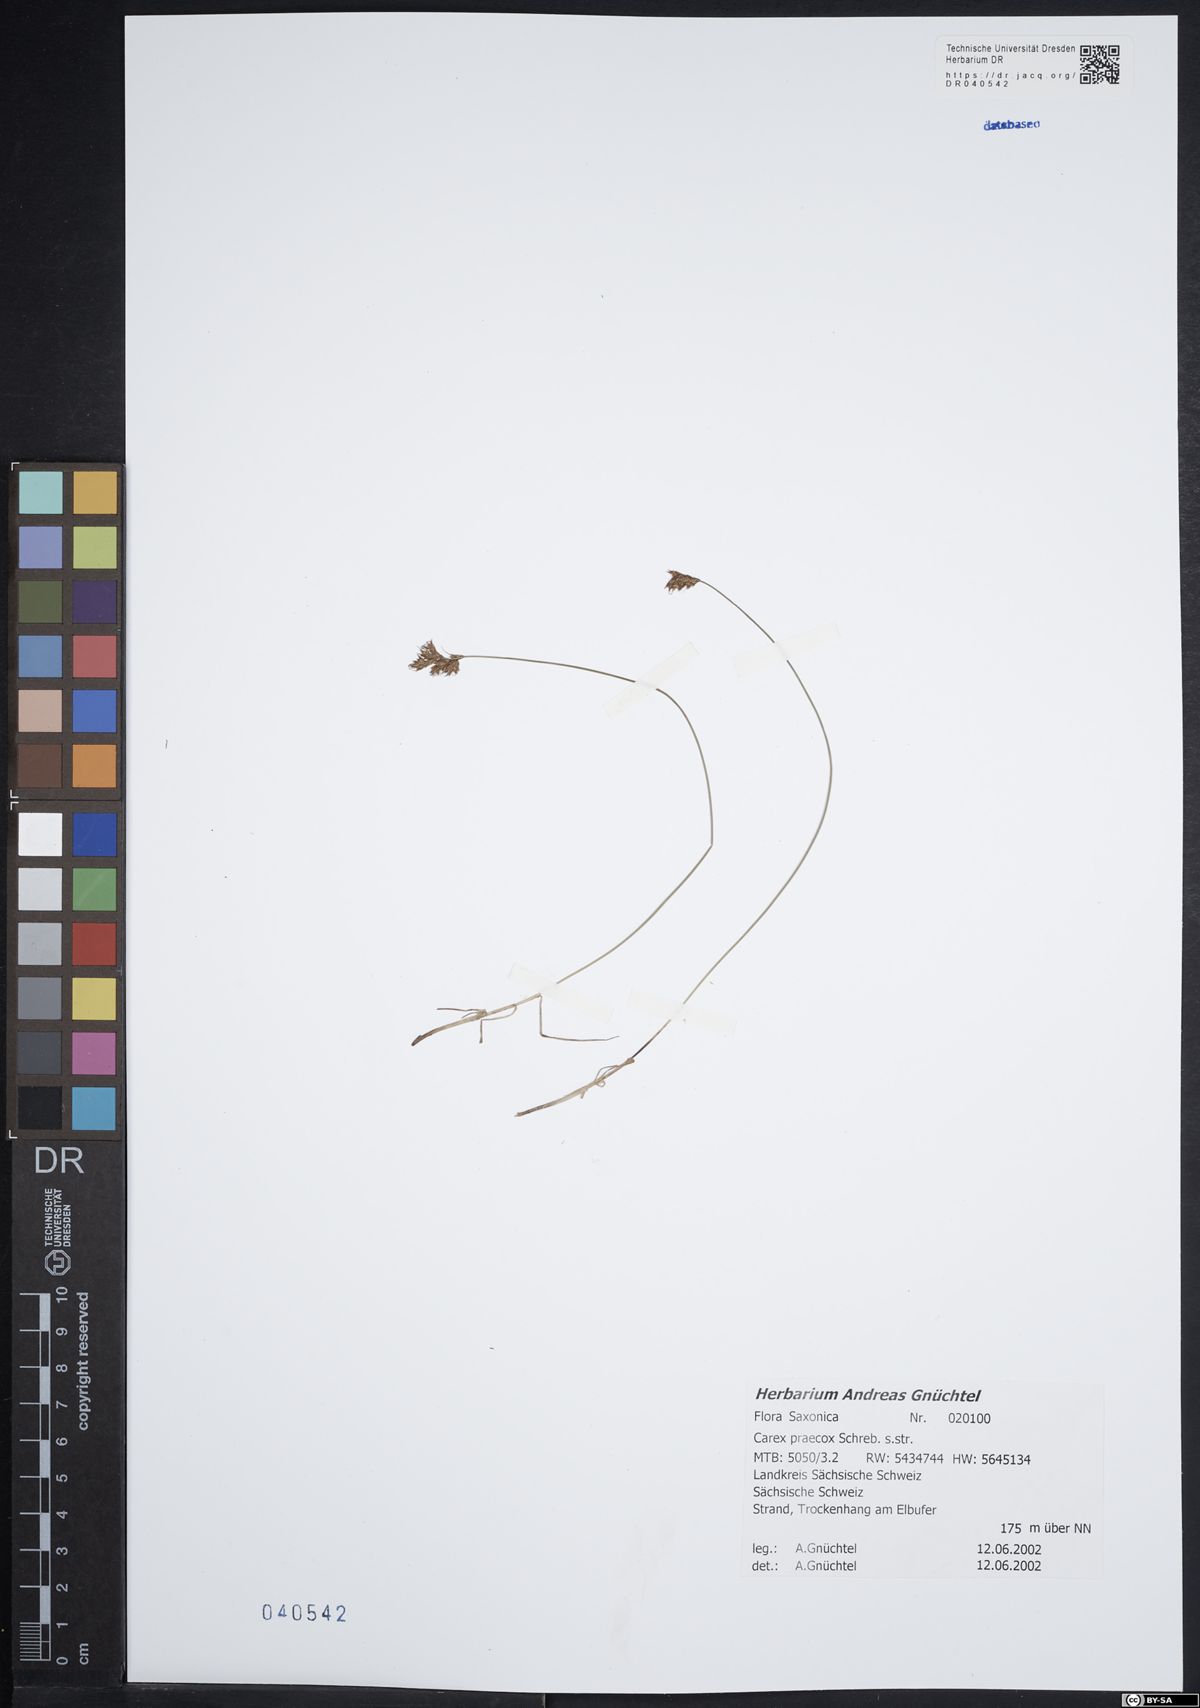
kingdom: Plantae
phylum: Tracheophyta
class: Liliopsida
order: Poales
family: Cyperaceae
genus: Carex
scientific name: Carex praecox
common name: Early sedge
